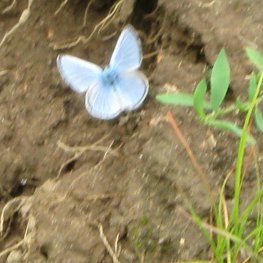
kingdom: Animalia
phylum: Arthropoda
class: Insecta
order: Lepidoptera
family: Lycaenidae
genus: Glaucopsyche
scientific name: Glaucopsyche lygdamus
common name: Silvery Blue
